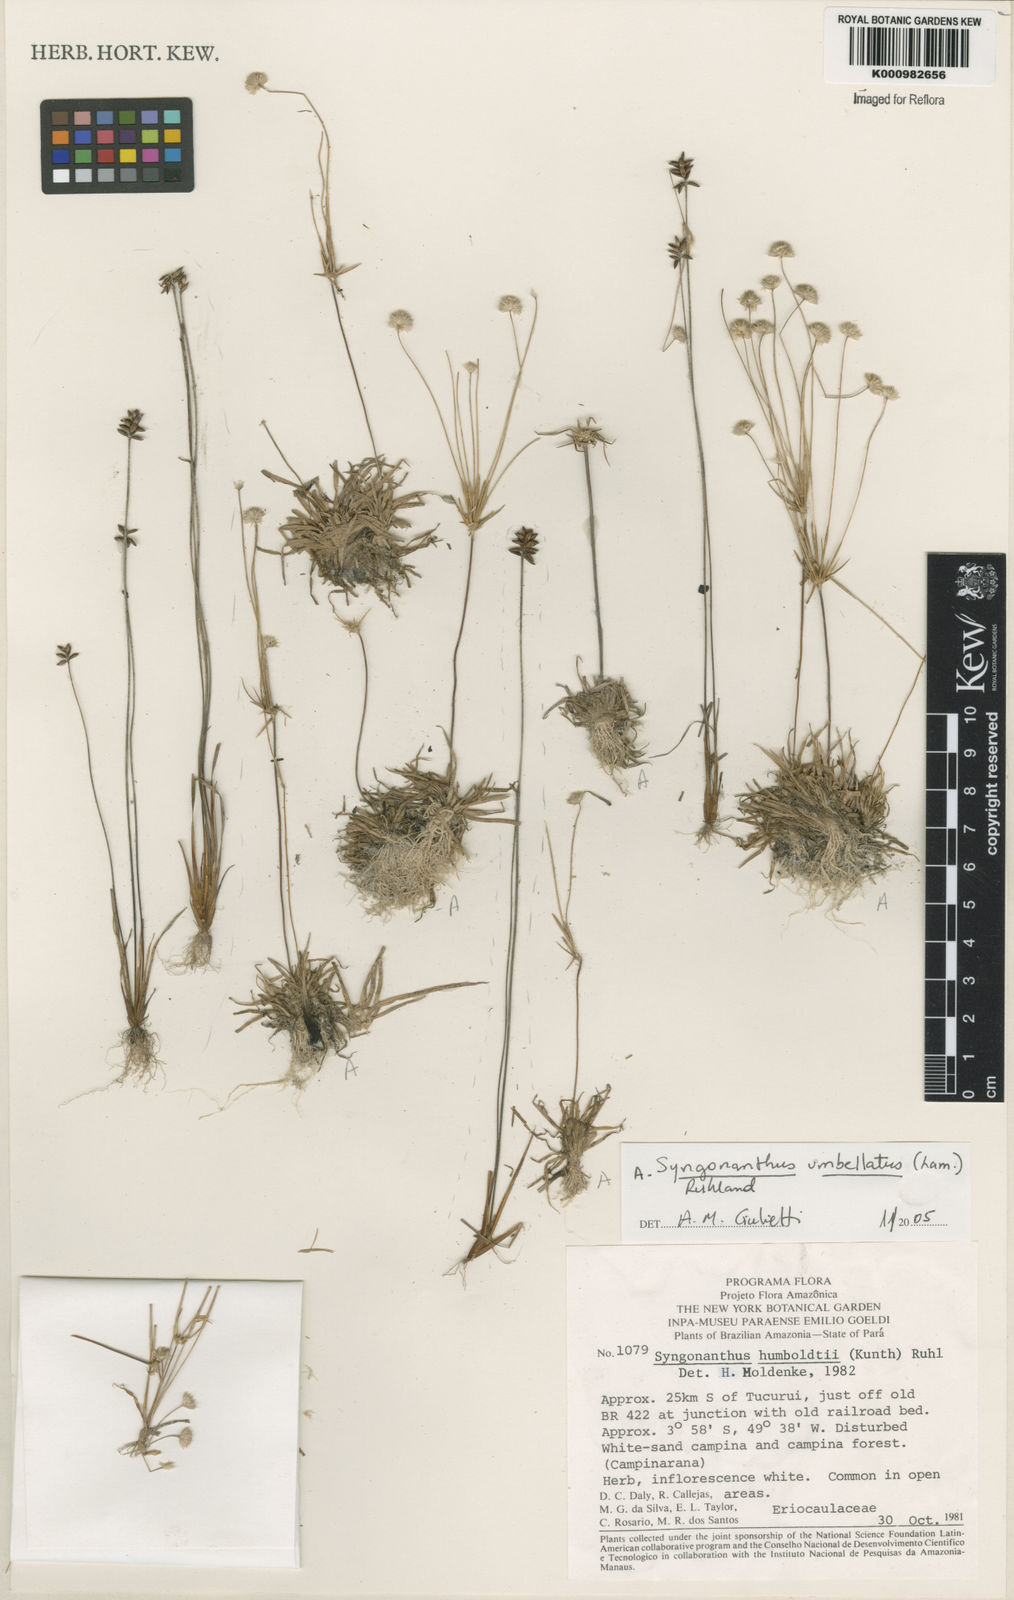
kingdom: Plantae
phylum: Tracheophyta
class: Liliopsida
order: Poales
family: Eriocaulaceae
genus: Syngonanthus
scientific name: Syngonanthus umbellatus
